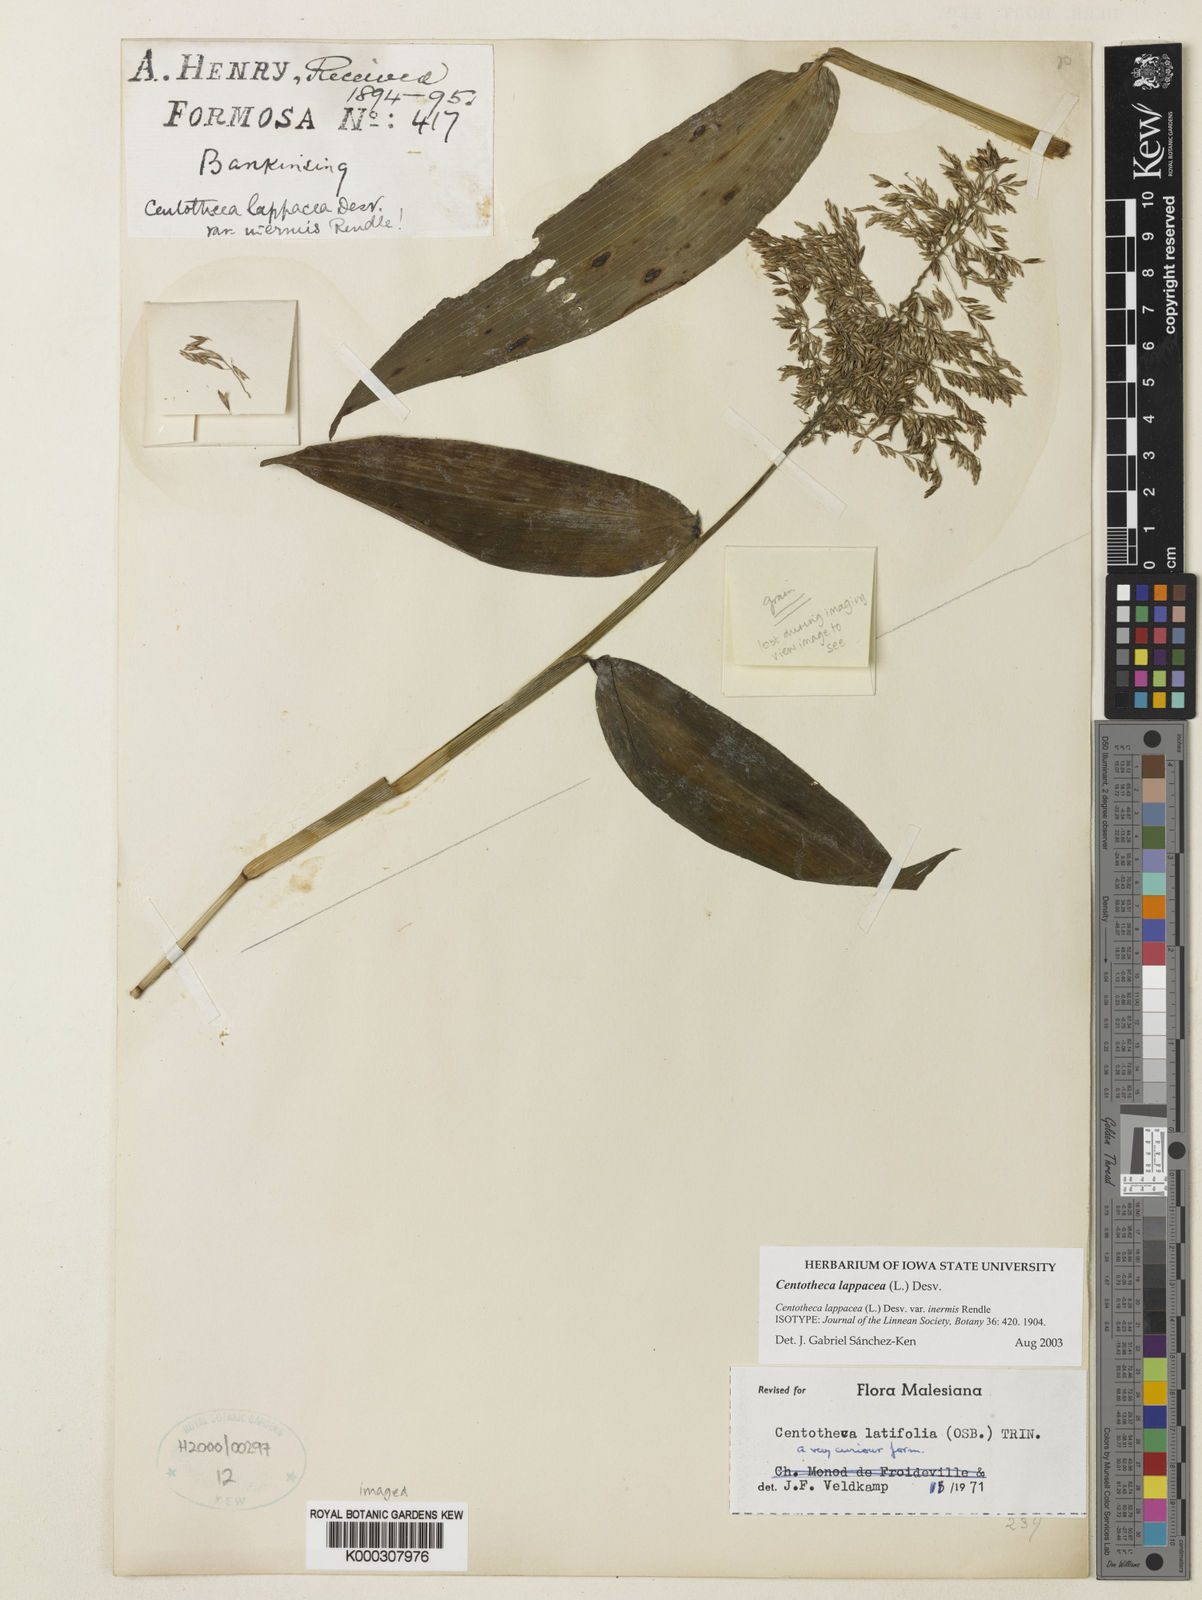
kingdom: Plantae
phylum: Tracheophyta
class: Liliopsida
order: Poales
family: Poaceae
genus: Centotheca
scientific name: Centotheca lappacea
